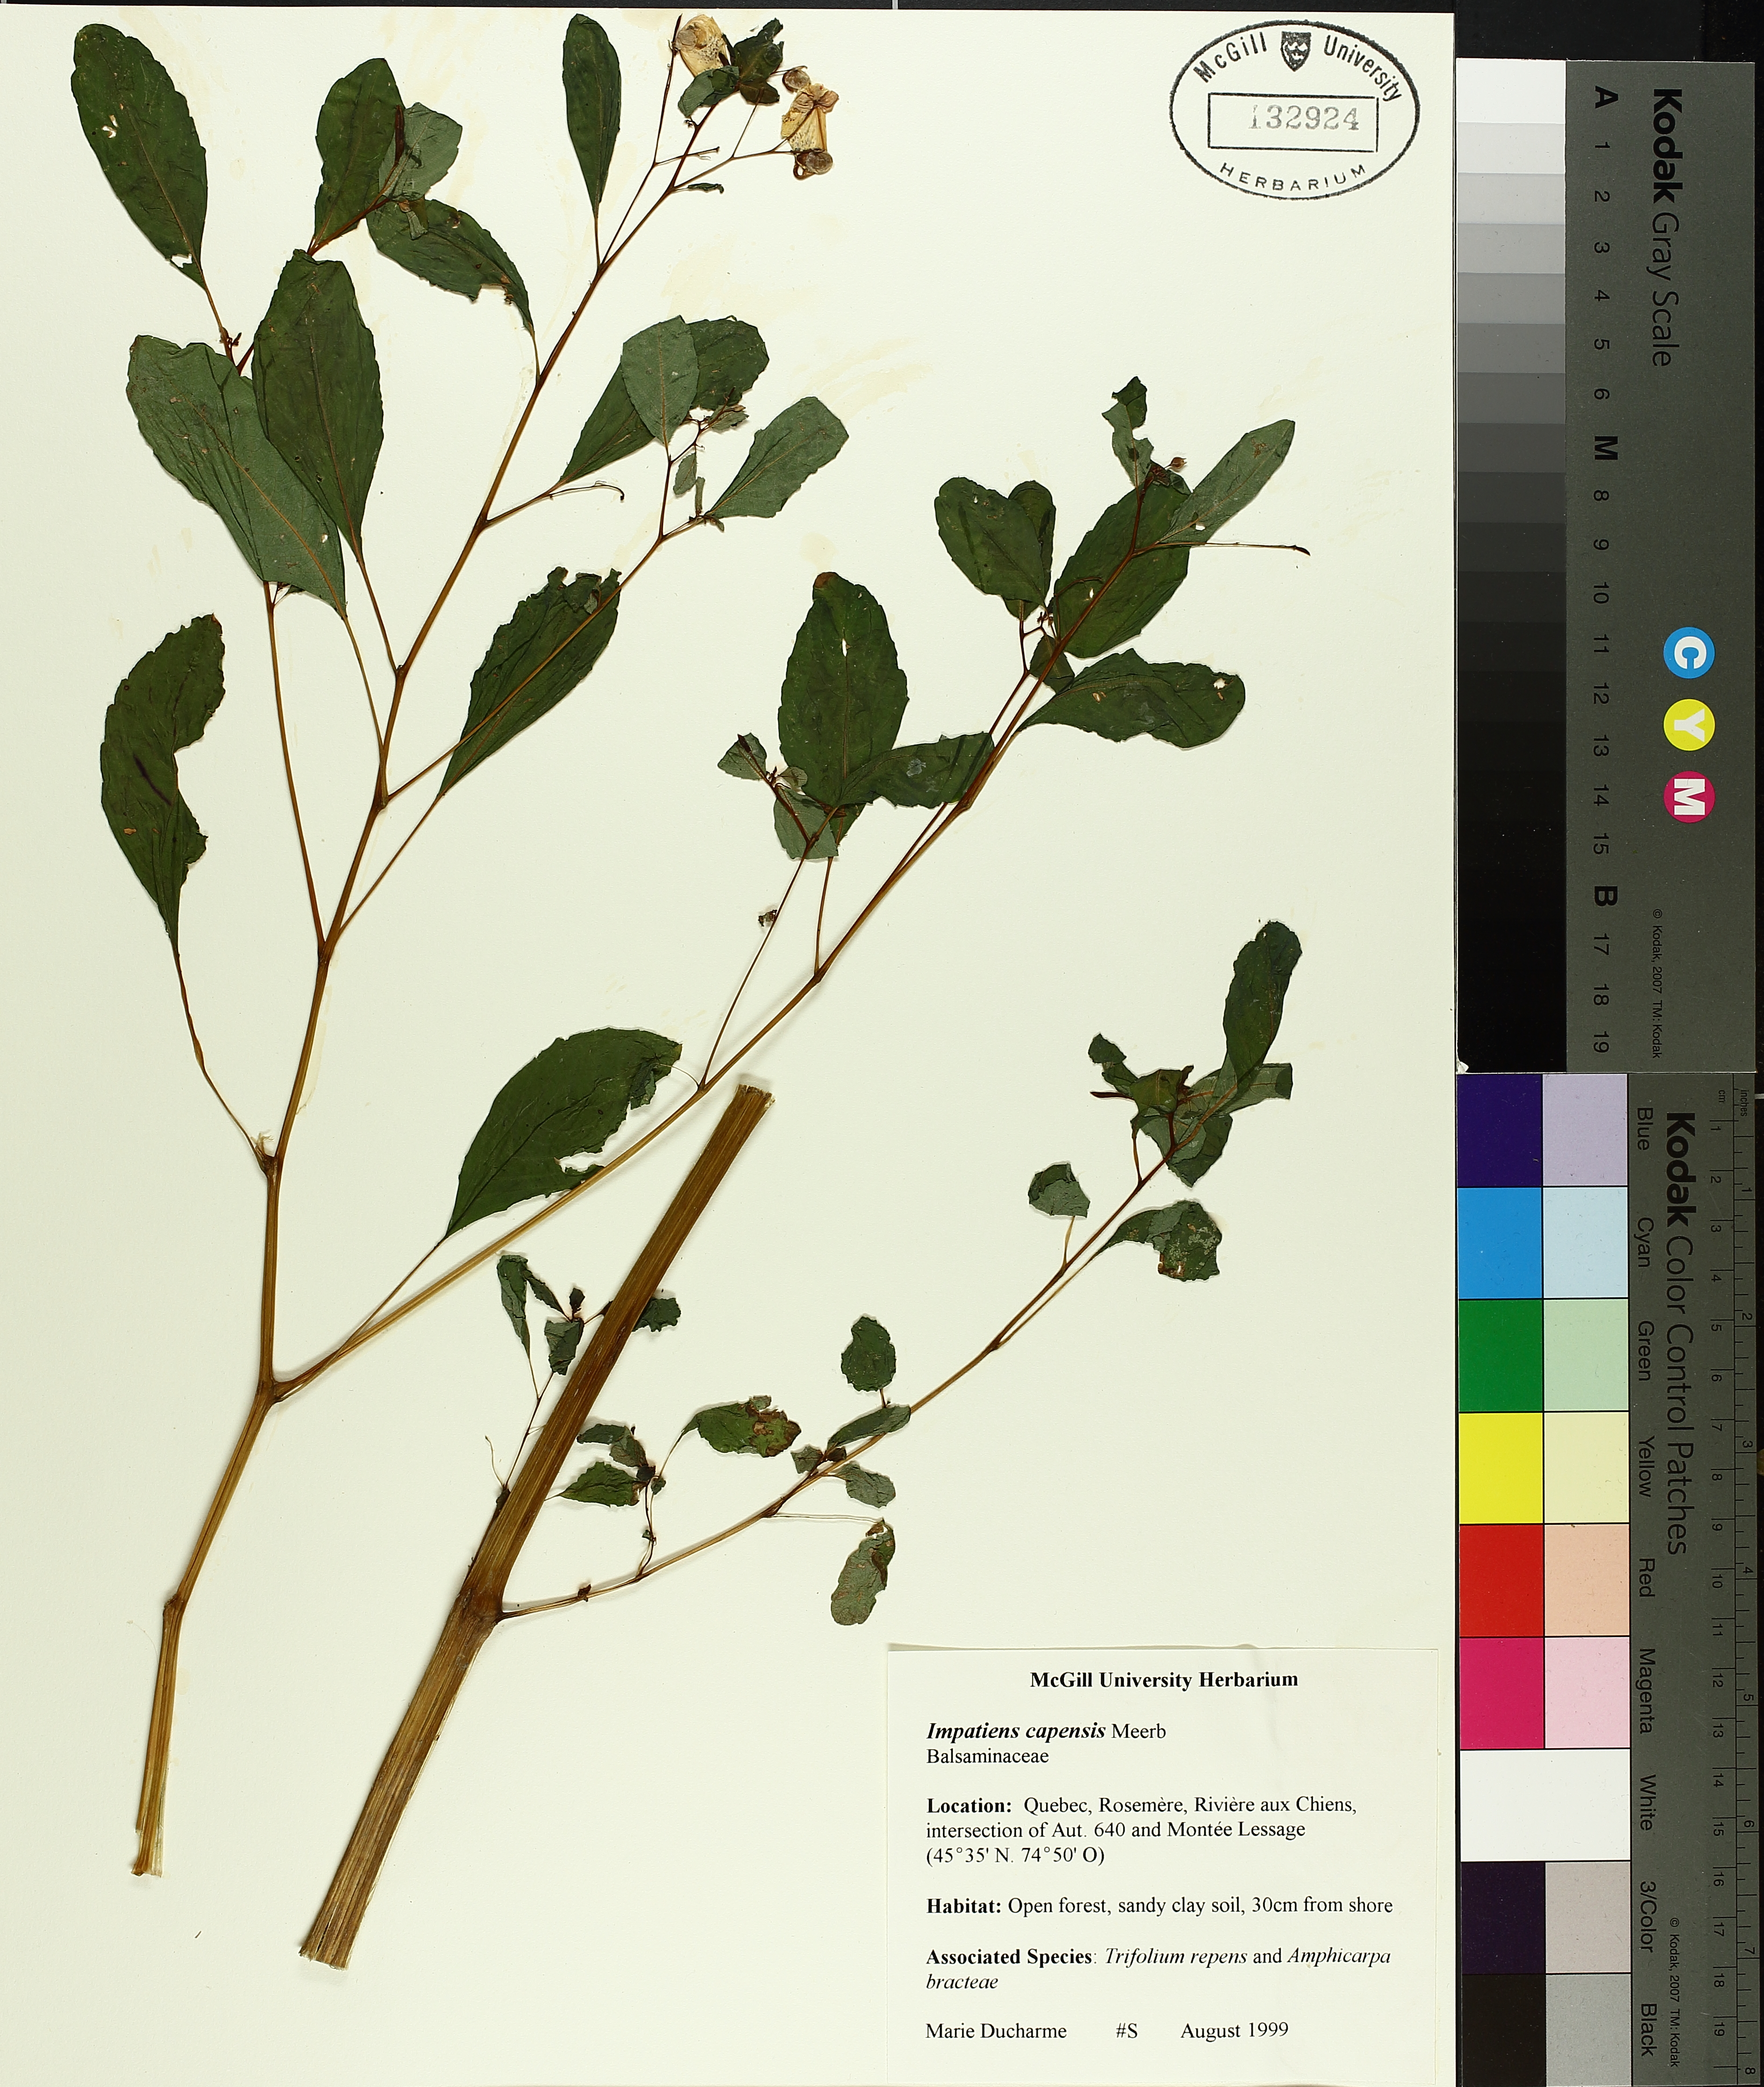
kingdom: Plantae
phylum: Tracheophyta
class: Liliopsida
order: Poales
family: Cyperaceae
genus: Carex
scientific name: Carex vesicaria
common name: Bladder-sedge
